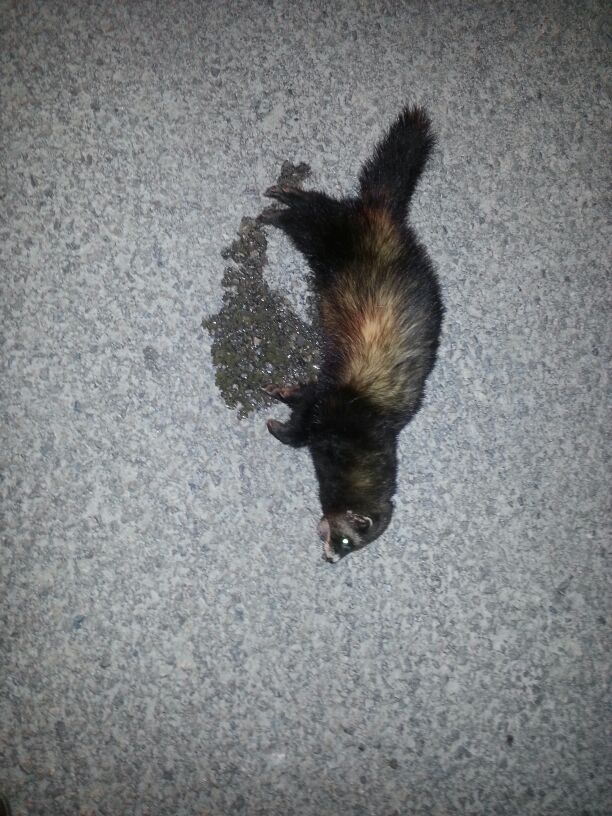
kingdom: Animalia
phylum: Chordata
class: Mammalia
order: Carnivora
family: Mustelidae
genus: Mustela
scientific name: Mustela putorius
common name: European polecat
